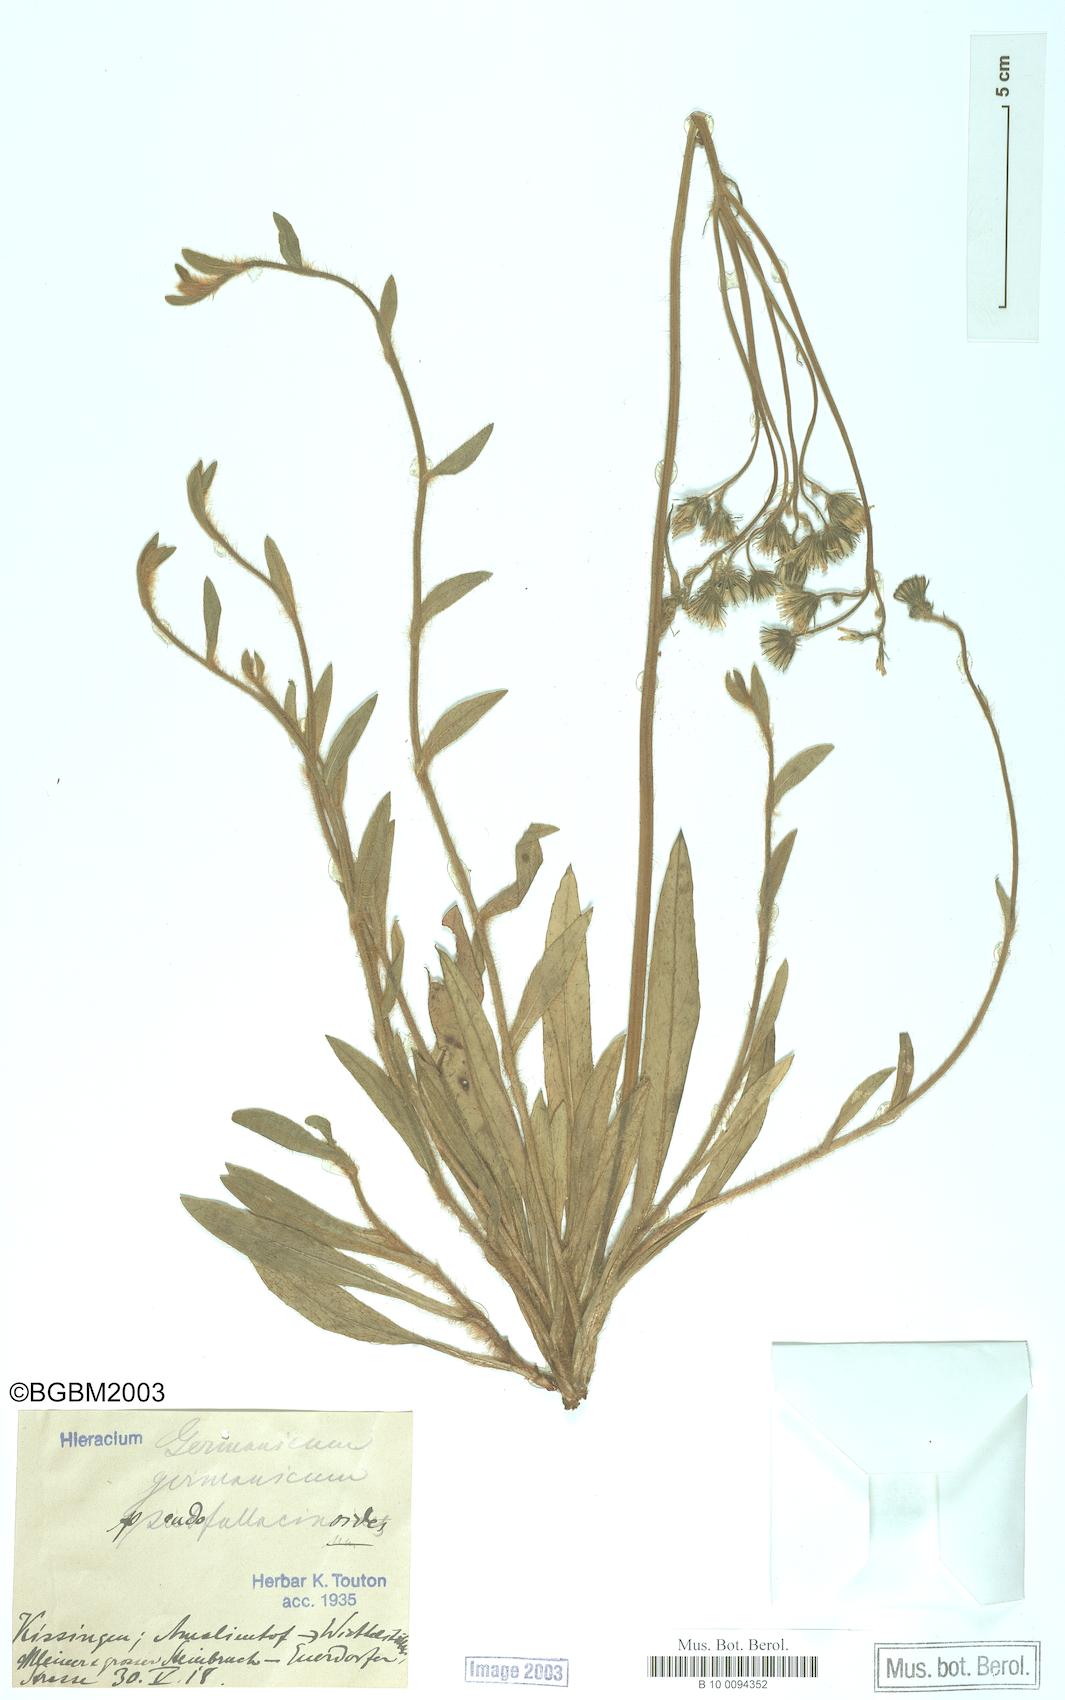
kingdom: Plantae
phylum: Tracheophyta
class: Magnoliopsida
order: Asterales
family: Asteraceae
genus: Pilosella
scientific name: Pilosella fallacina
